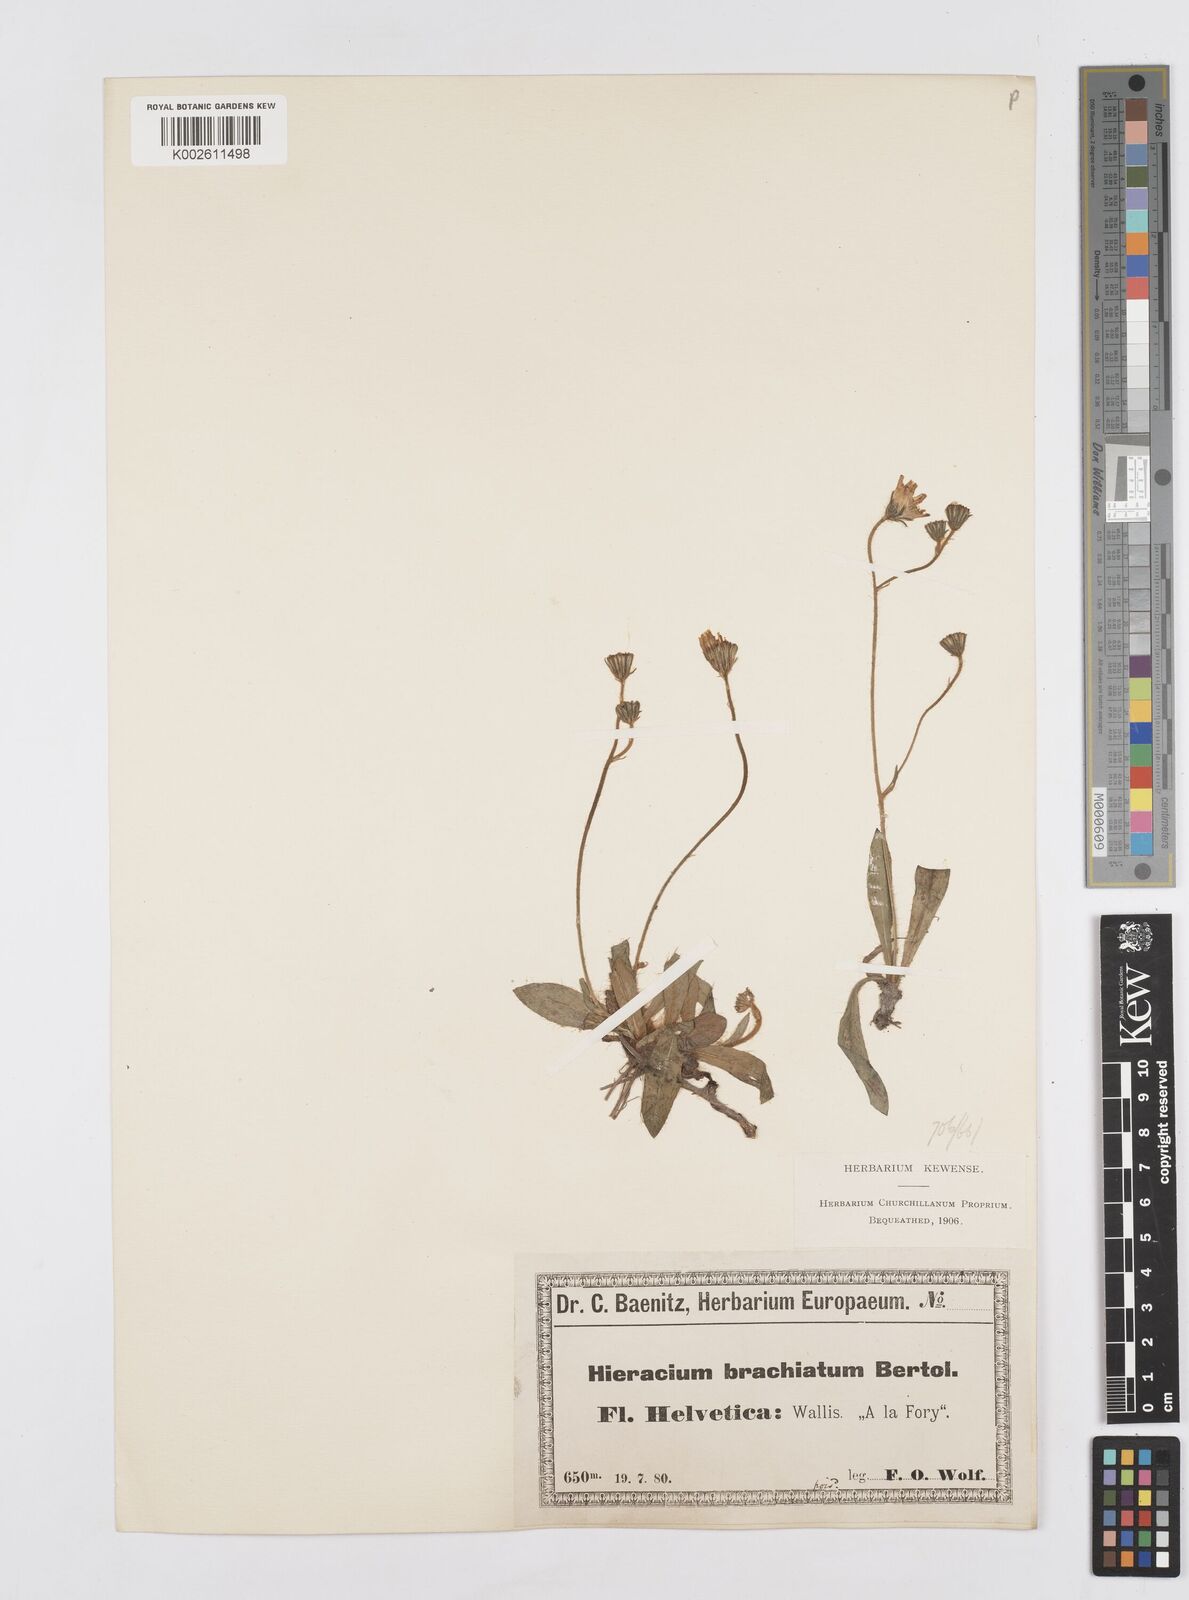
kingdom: Plantae
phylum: Tracheophyta
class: Magnoliopsida
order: Asterales
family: Asteraceae
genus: Pilosella
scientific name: Pilosella acutifolia
